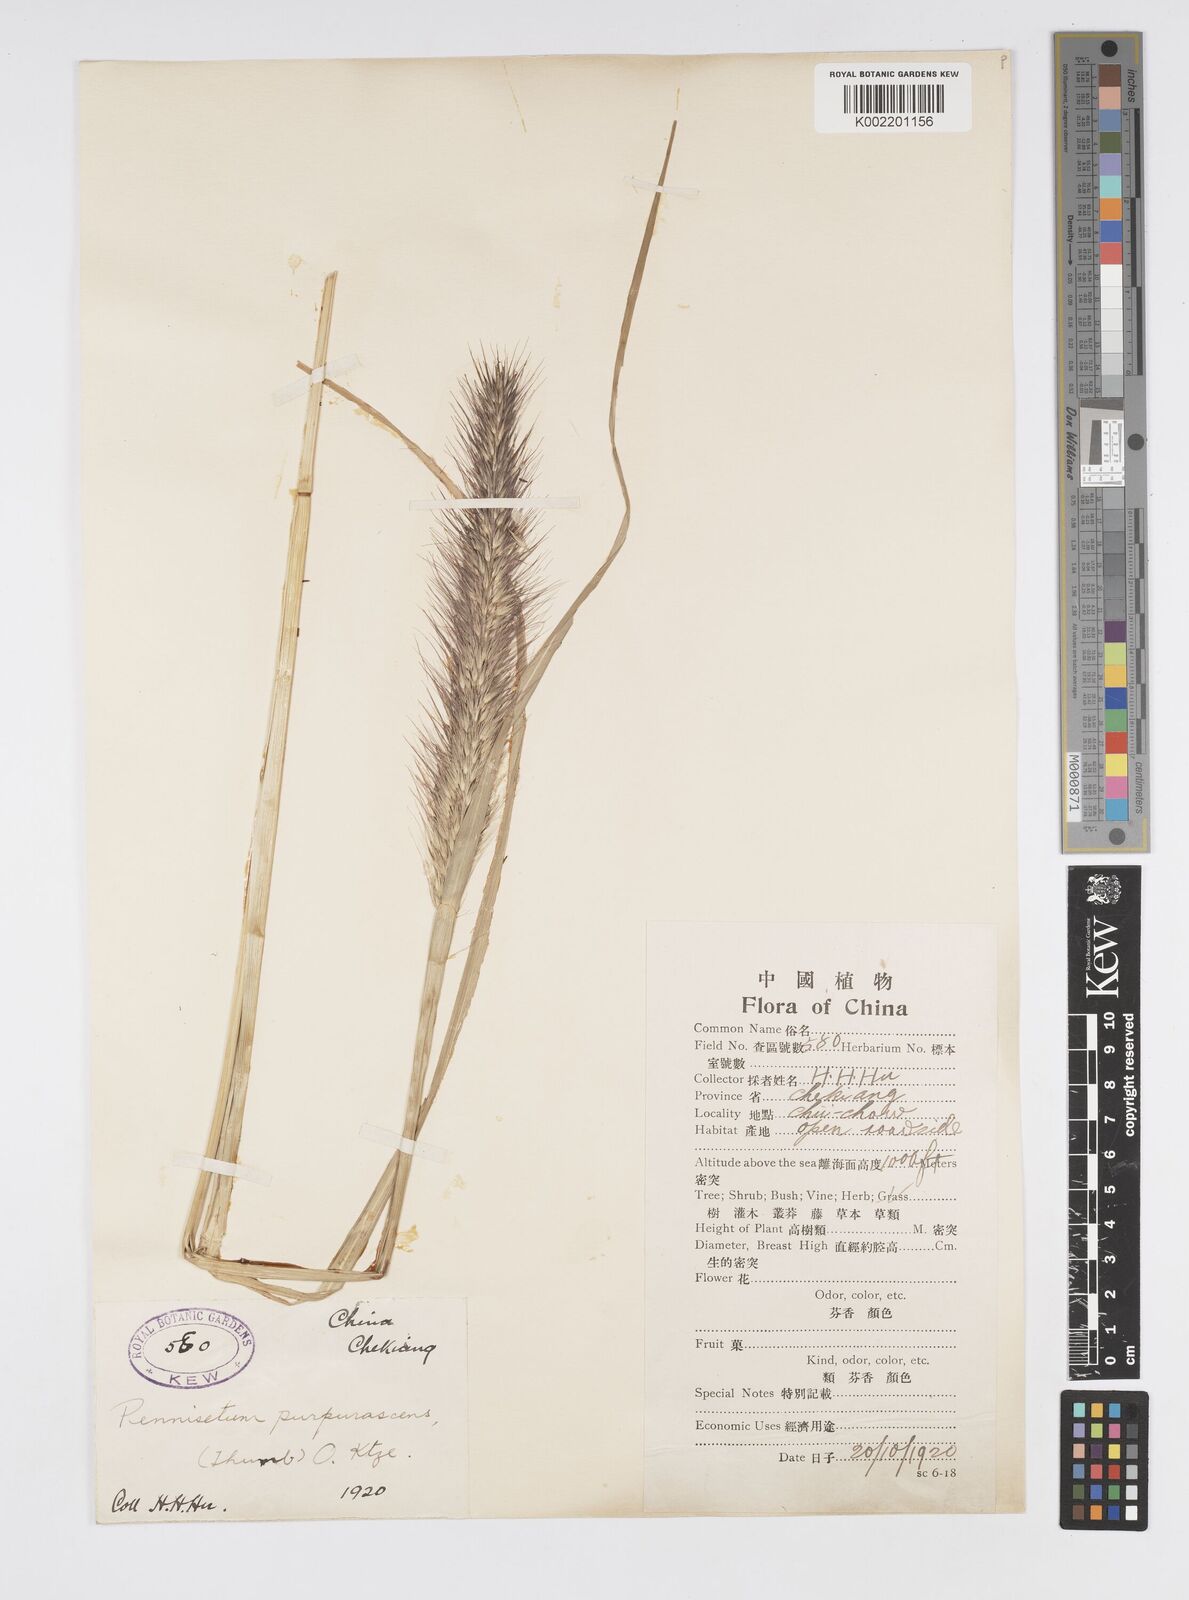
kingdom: Plantae
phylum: Tracheophyta
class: Liliopsida
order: Poales
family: Poaceae
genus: Cenchrus
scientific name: Cenchrus alopecuroides
